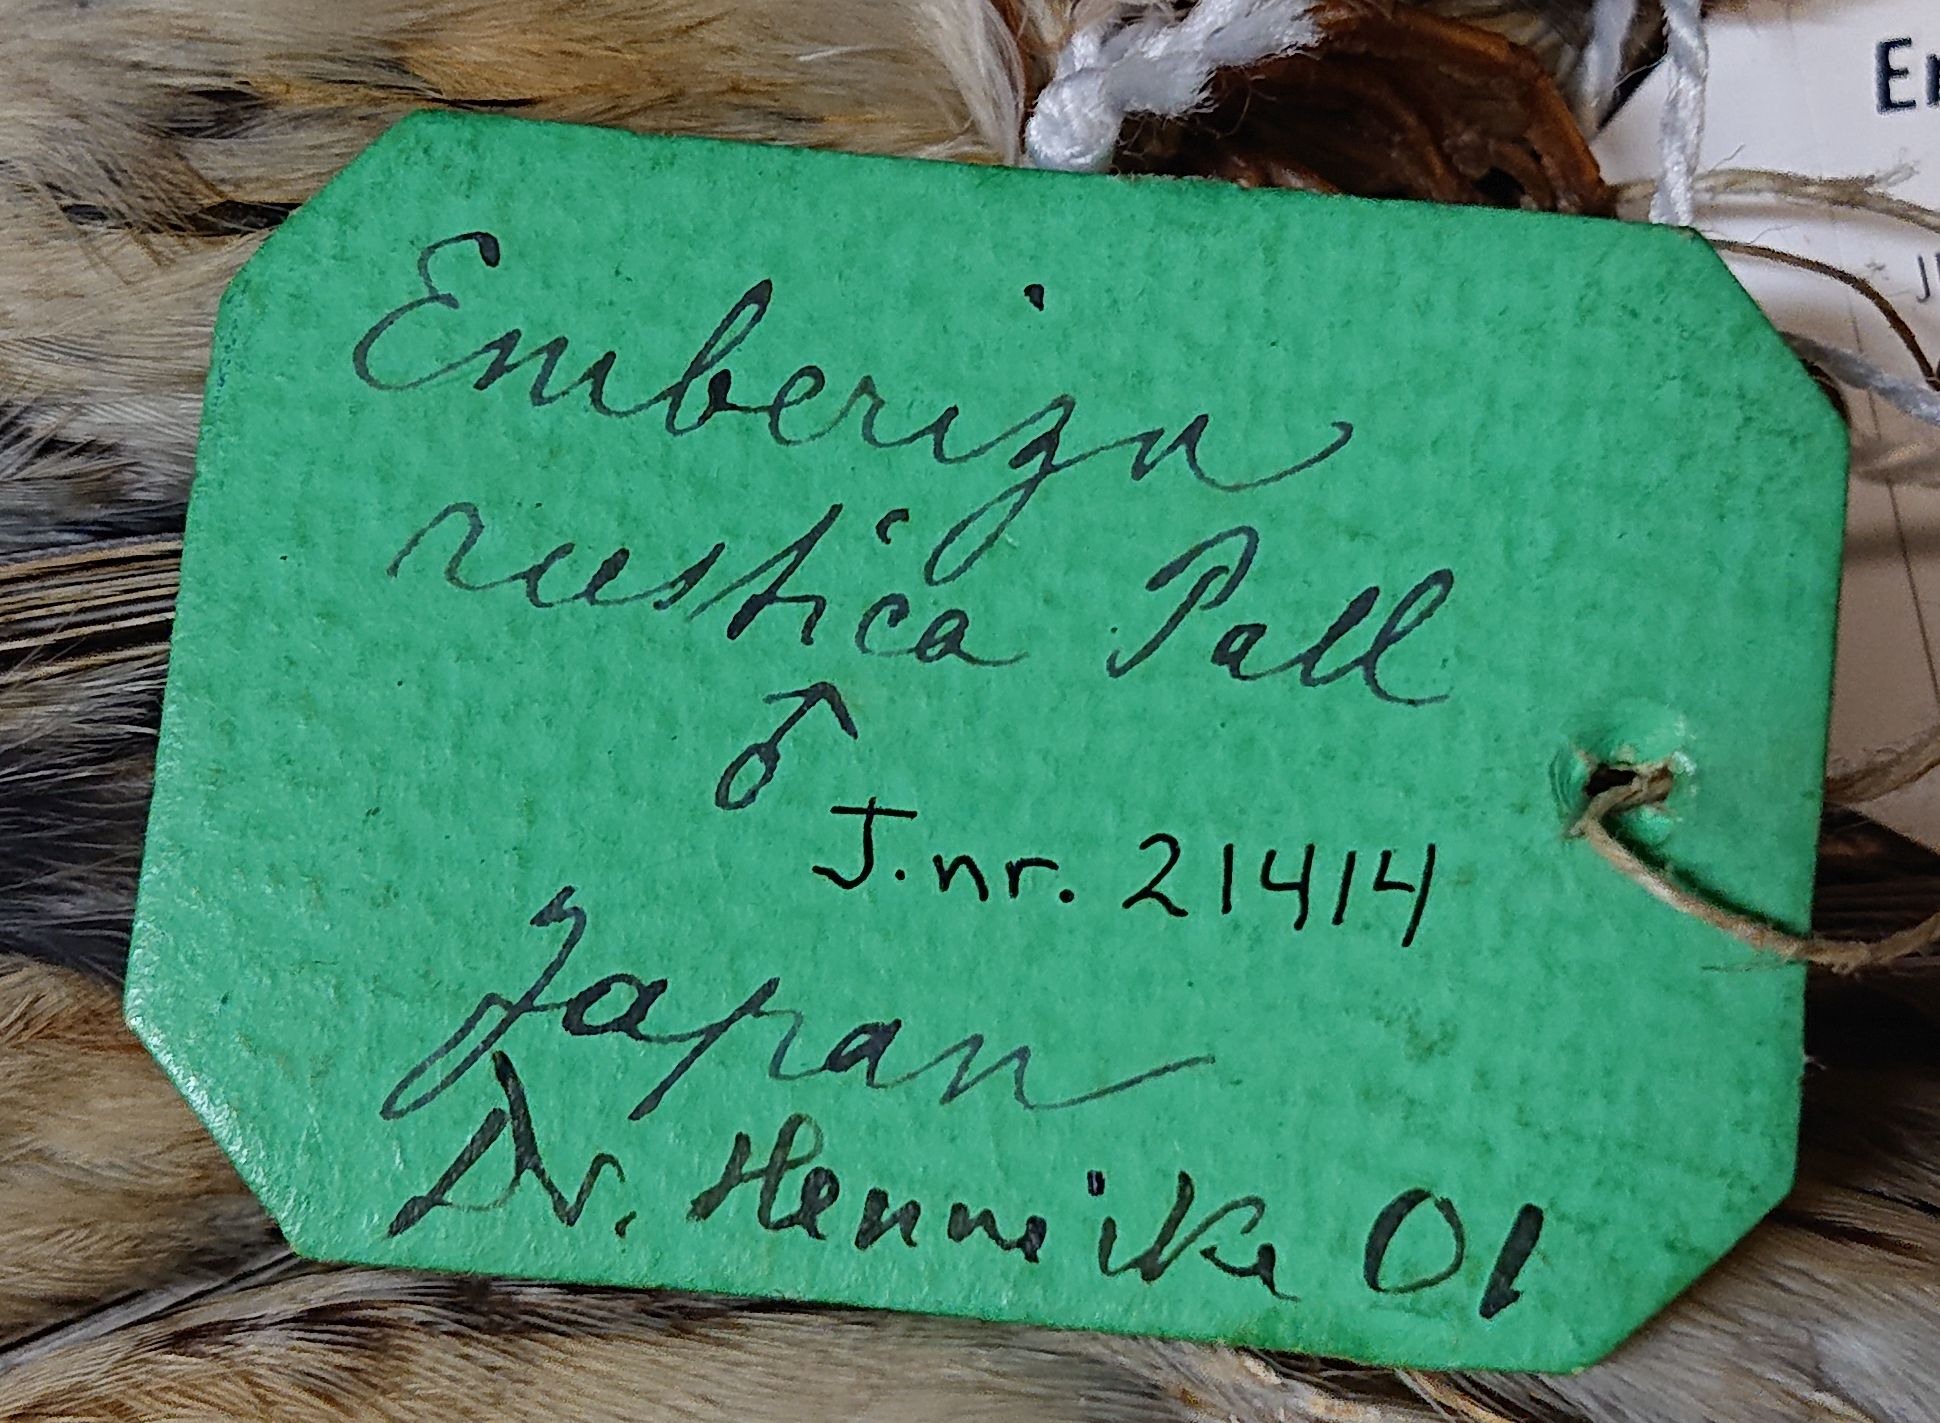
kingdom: Animalia
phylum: Chordata
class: Aves
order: Passeriformes
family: Emberizidae
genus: Emberiza
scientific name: Emberiza rustica
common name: Rustic bunting
